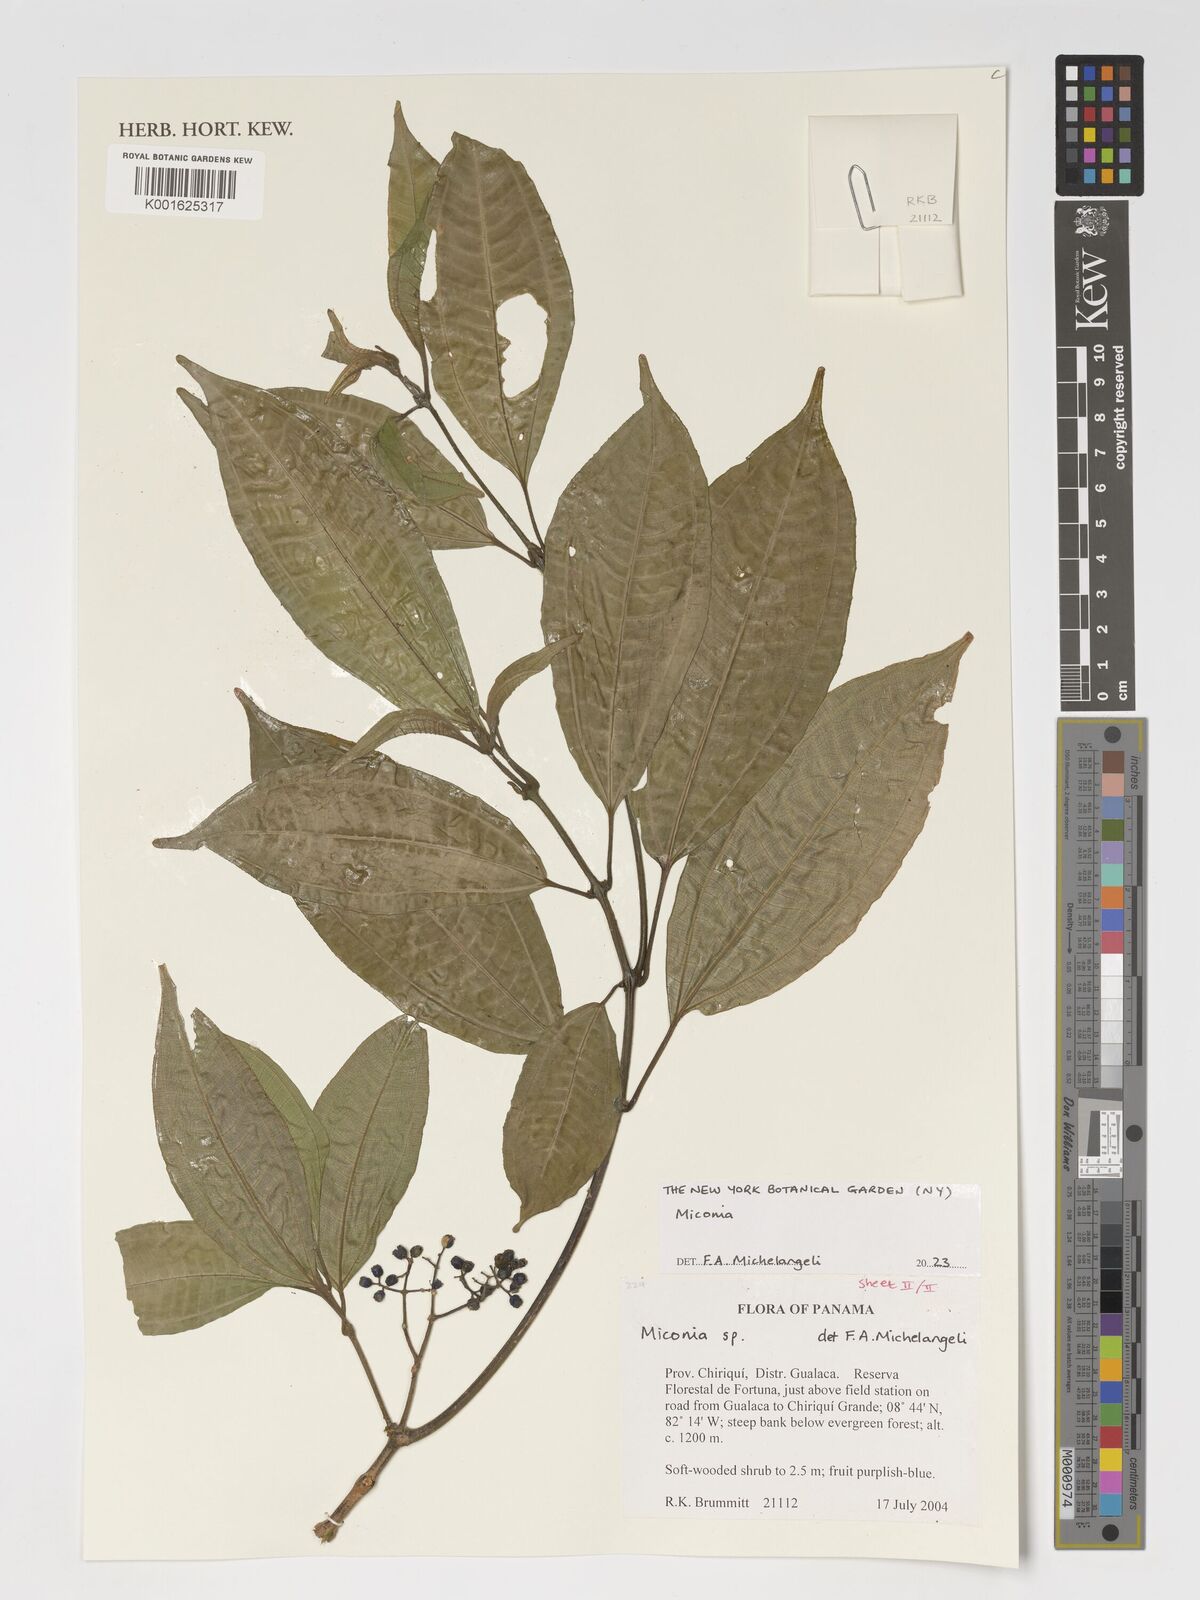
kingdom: Plantae
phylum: Tracheophyta
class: Magnoliopsida
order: Myrtales
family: Melastomataceae
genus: Miconia
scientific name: Miconia
